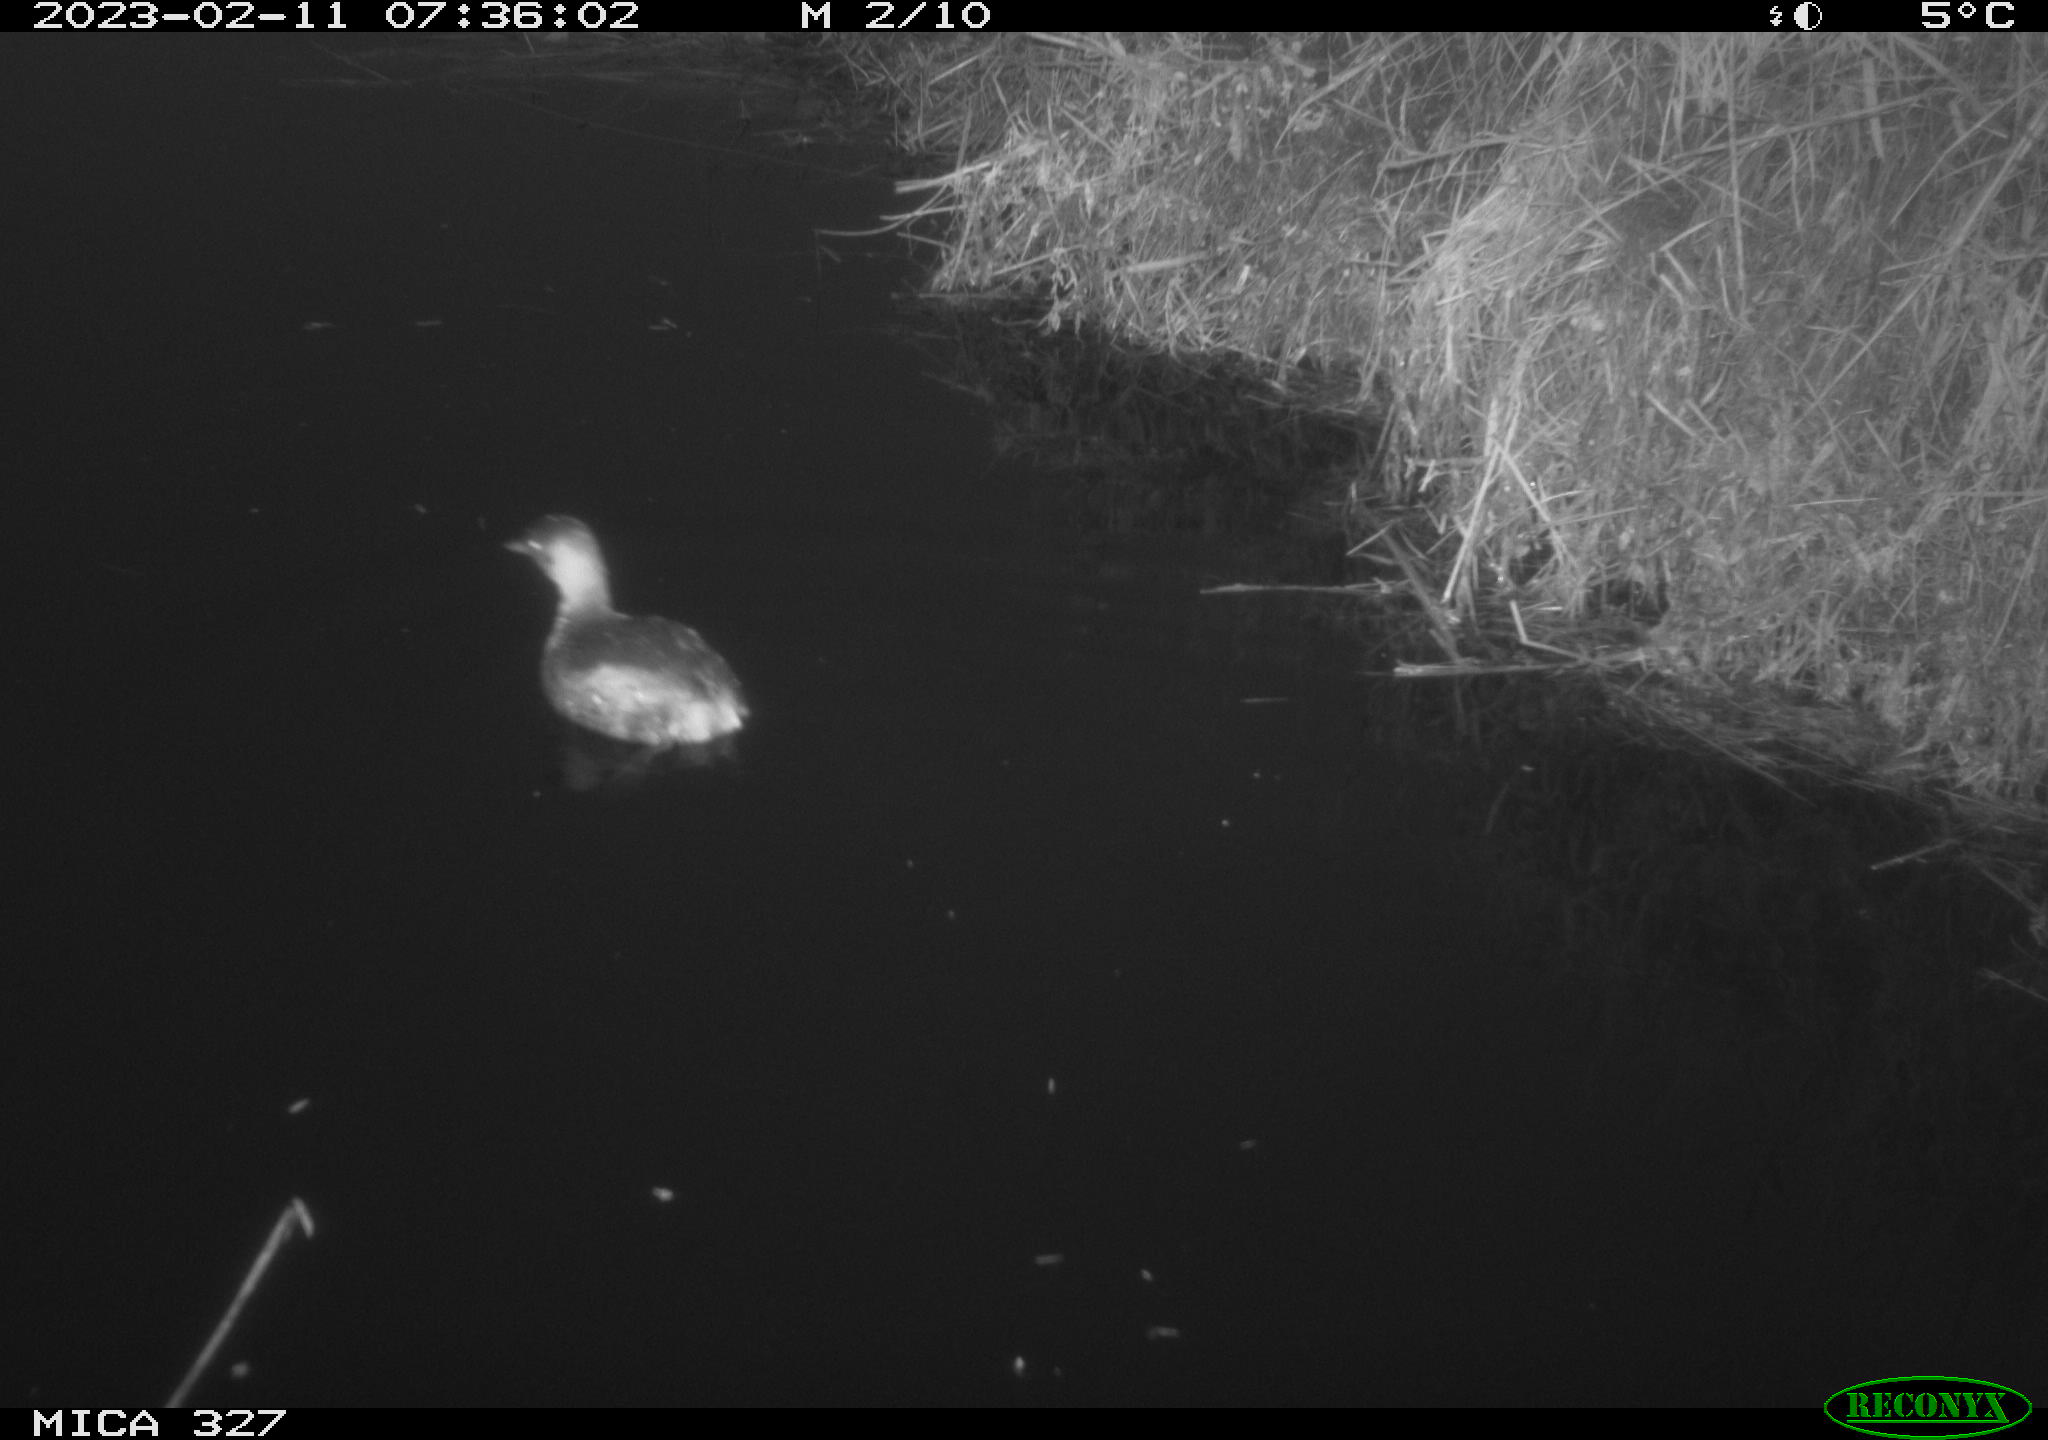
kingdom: Animalia
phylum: Chordata
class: Aves
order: Podicipediformes
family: Podicipedidae
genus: Tachybaptus
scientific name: Tachybaptus ruficollis
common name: Little grebe
